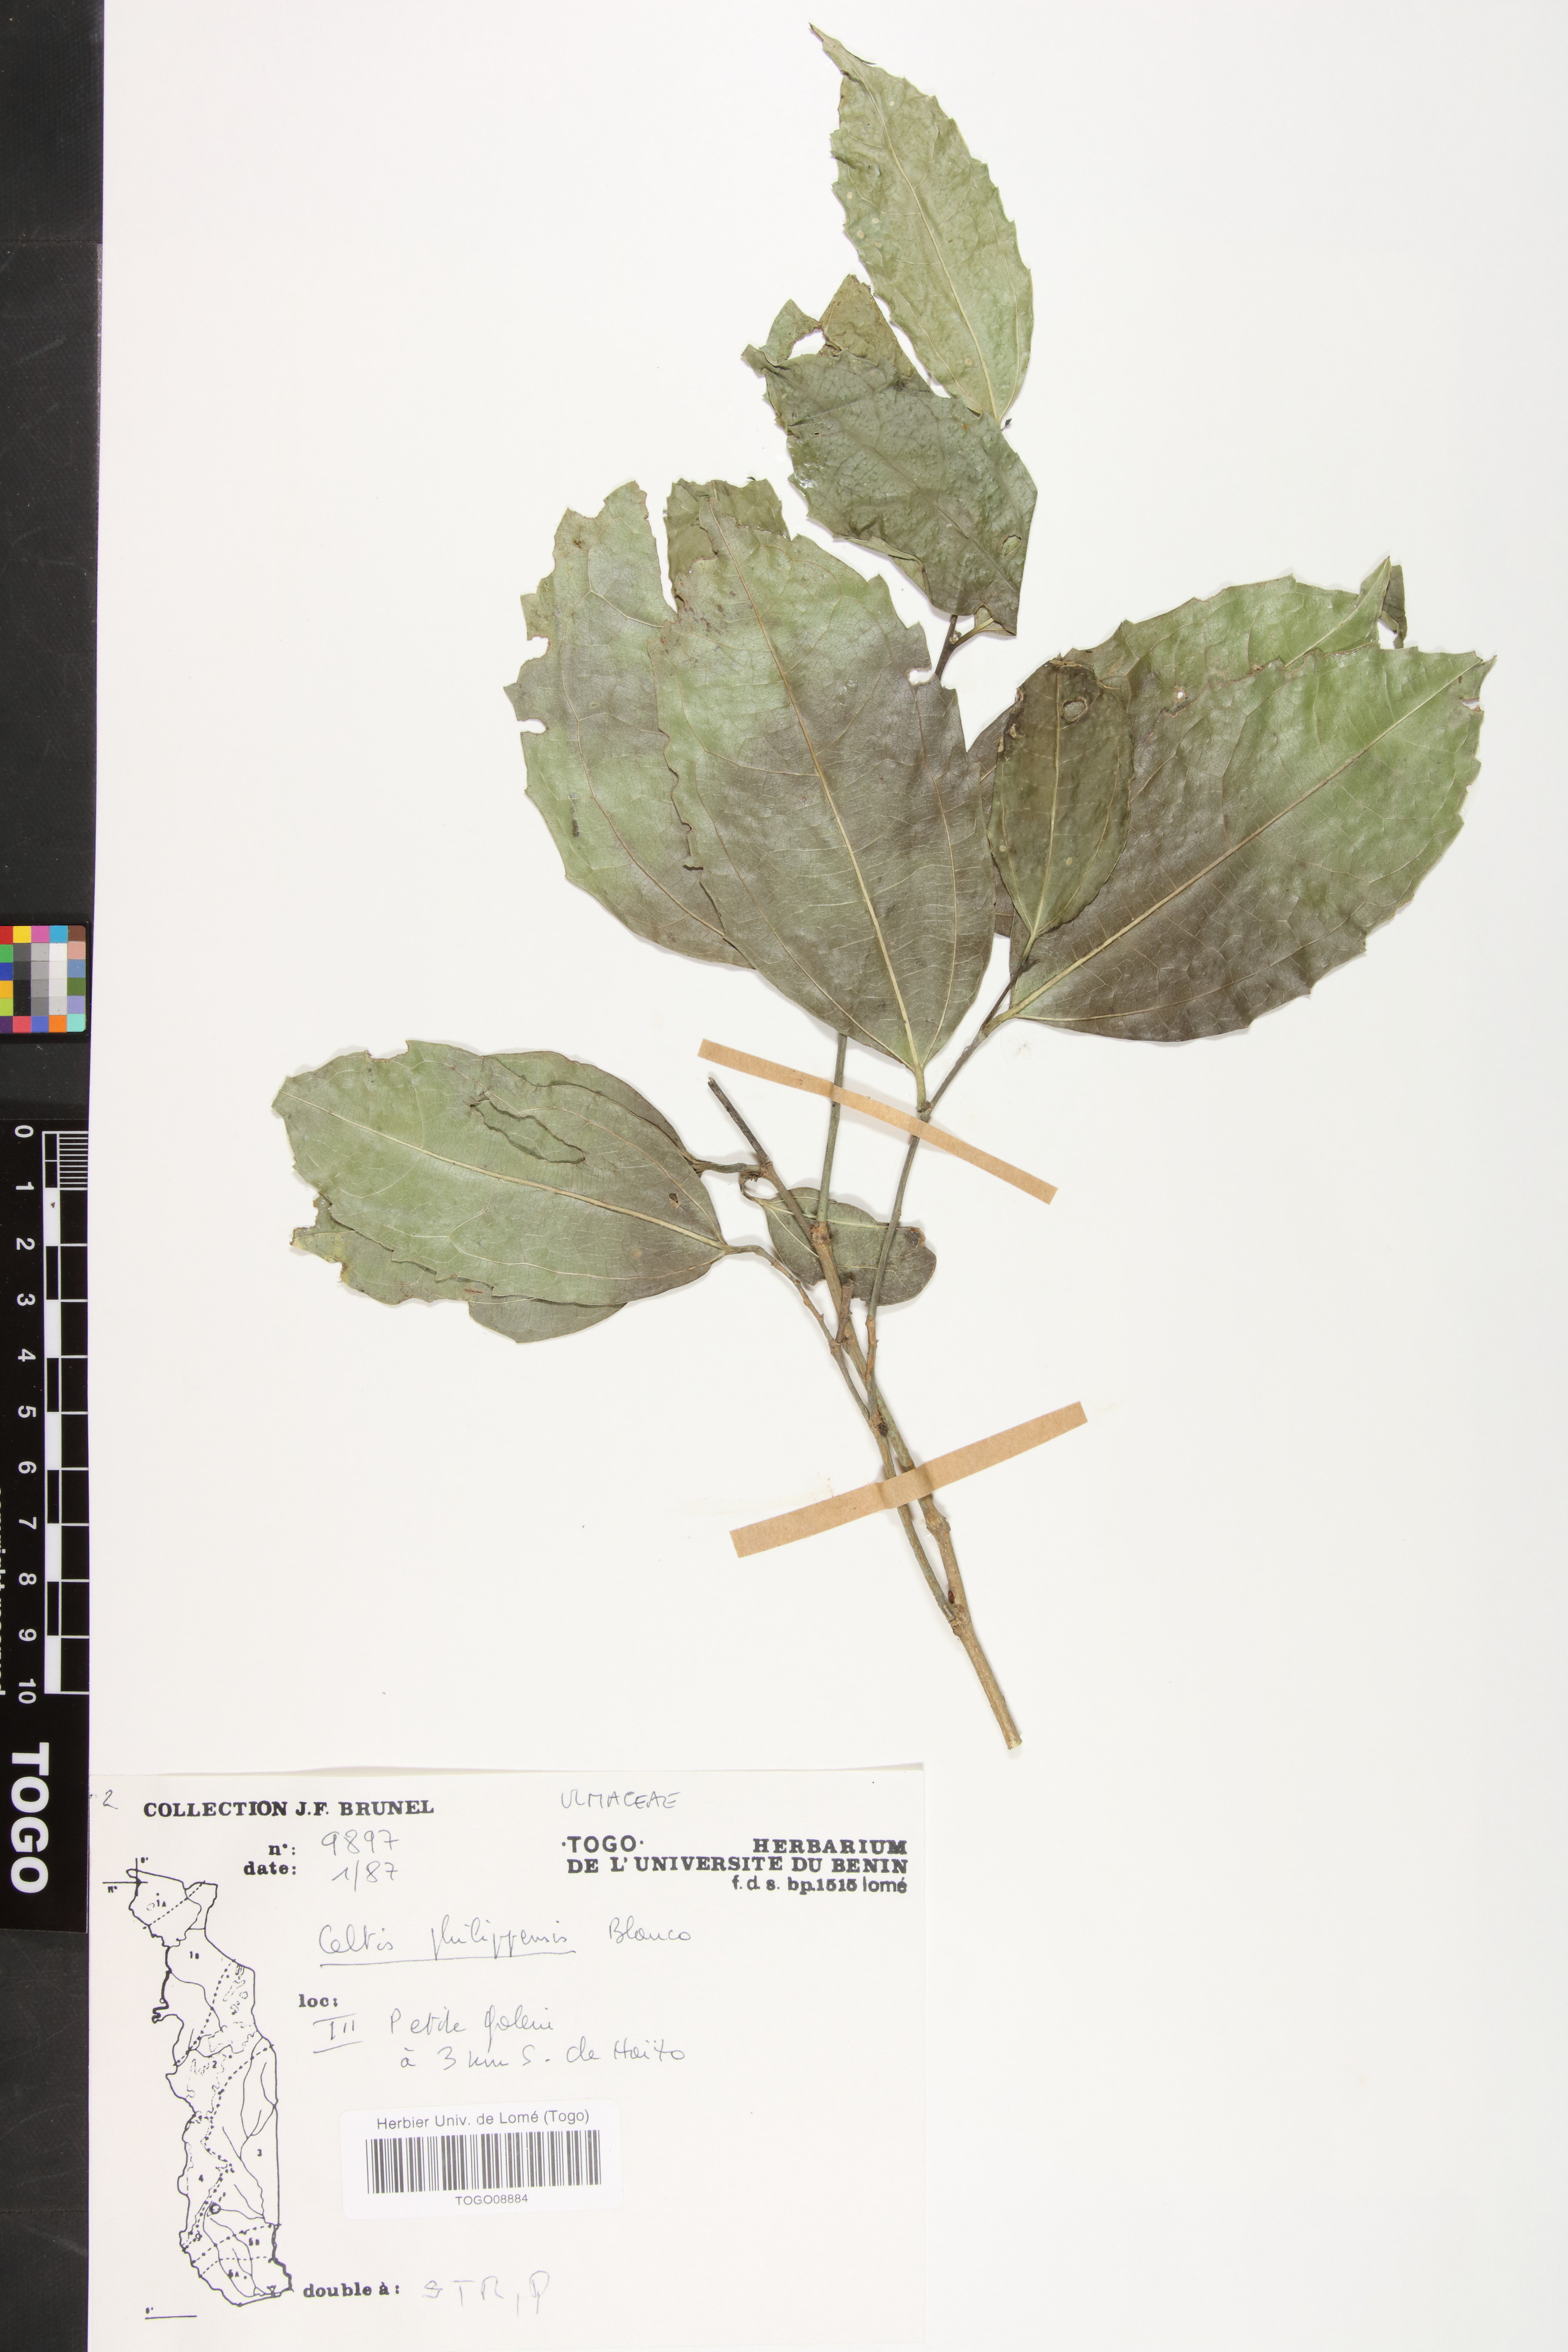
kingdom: Plantae
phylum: Tracheophyta
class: Magnoliopsida
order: Rosales
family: Cannabaceae
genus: Celtis
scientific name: Celtis philippensis
